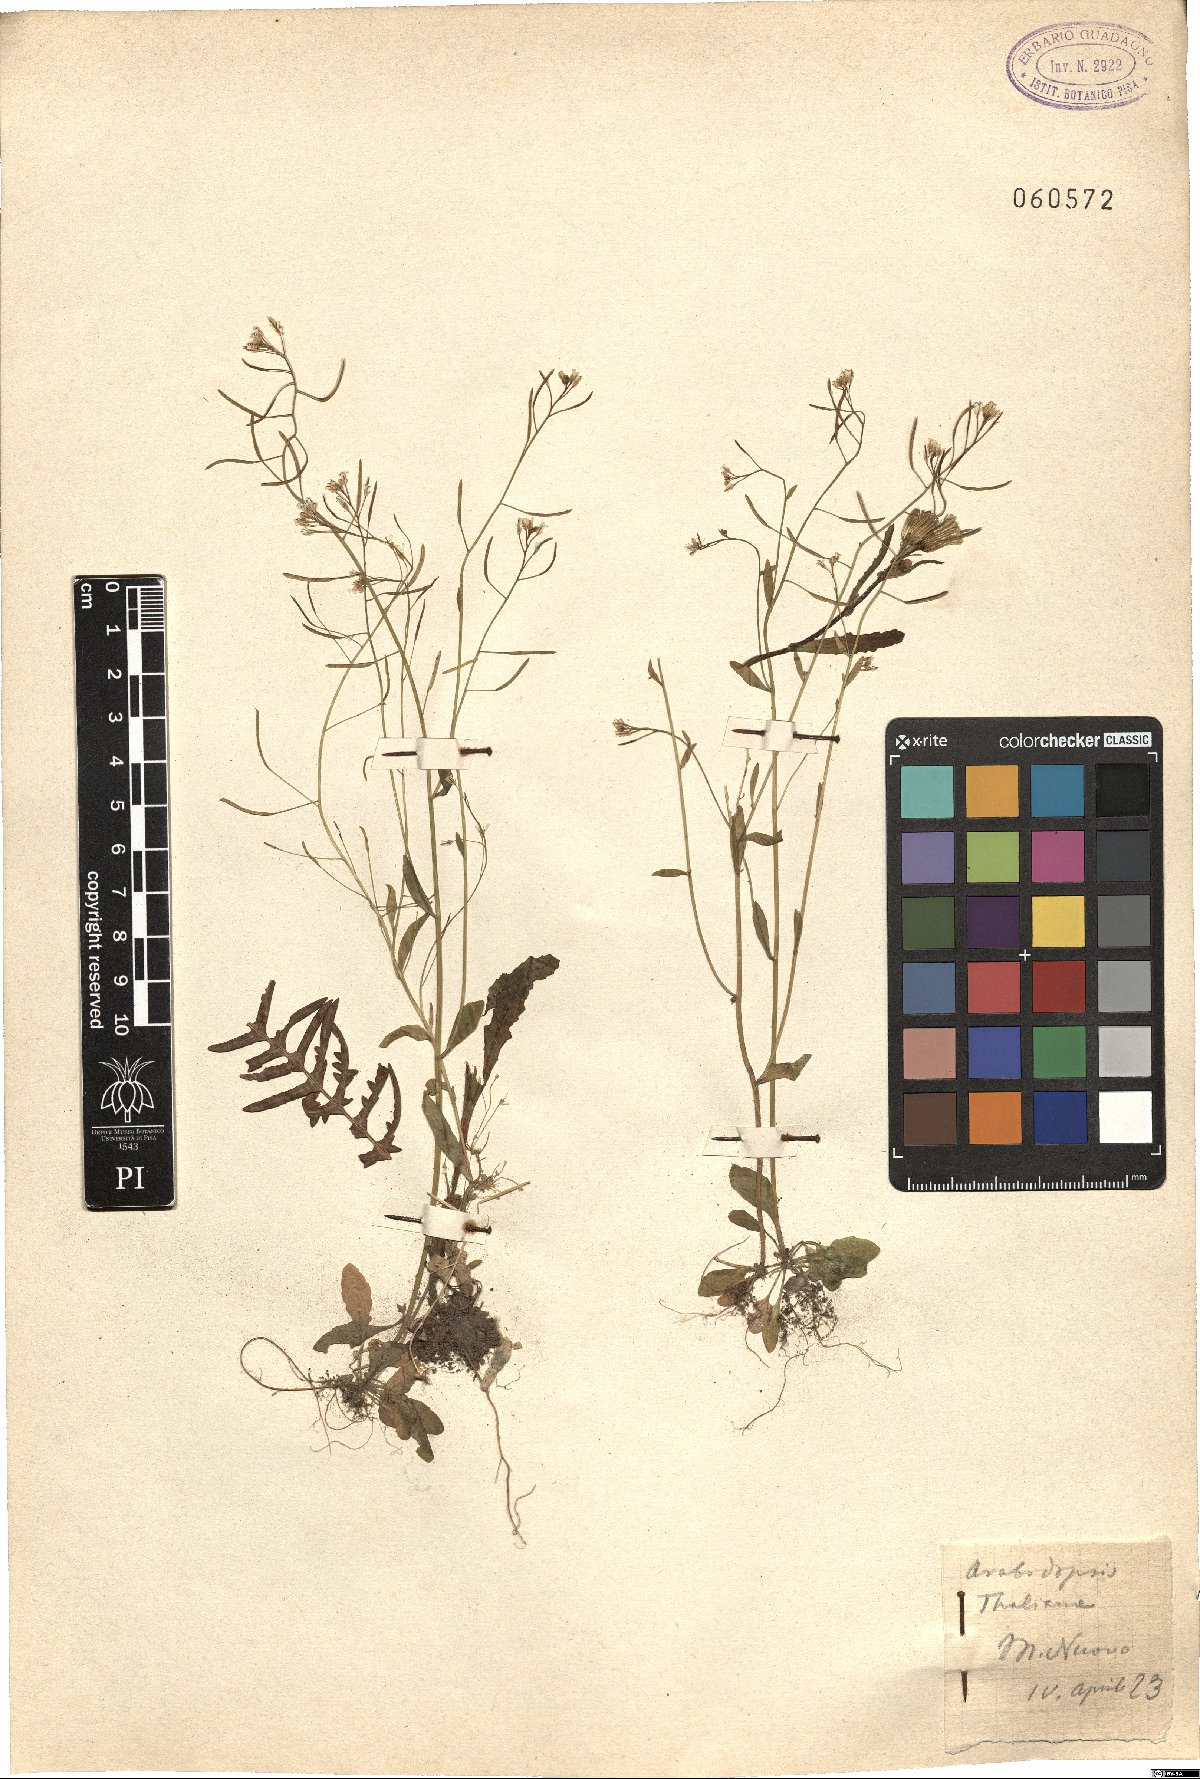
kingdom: Plantae
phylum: Tracheophyta
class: Magnoliopsida
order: Brassicales
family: Brassicaceae
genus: Arabidopsis
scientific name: Arabidopsis thaliana
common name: Thale cress
